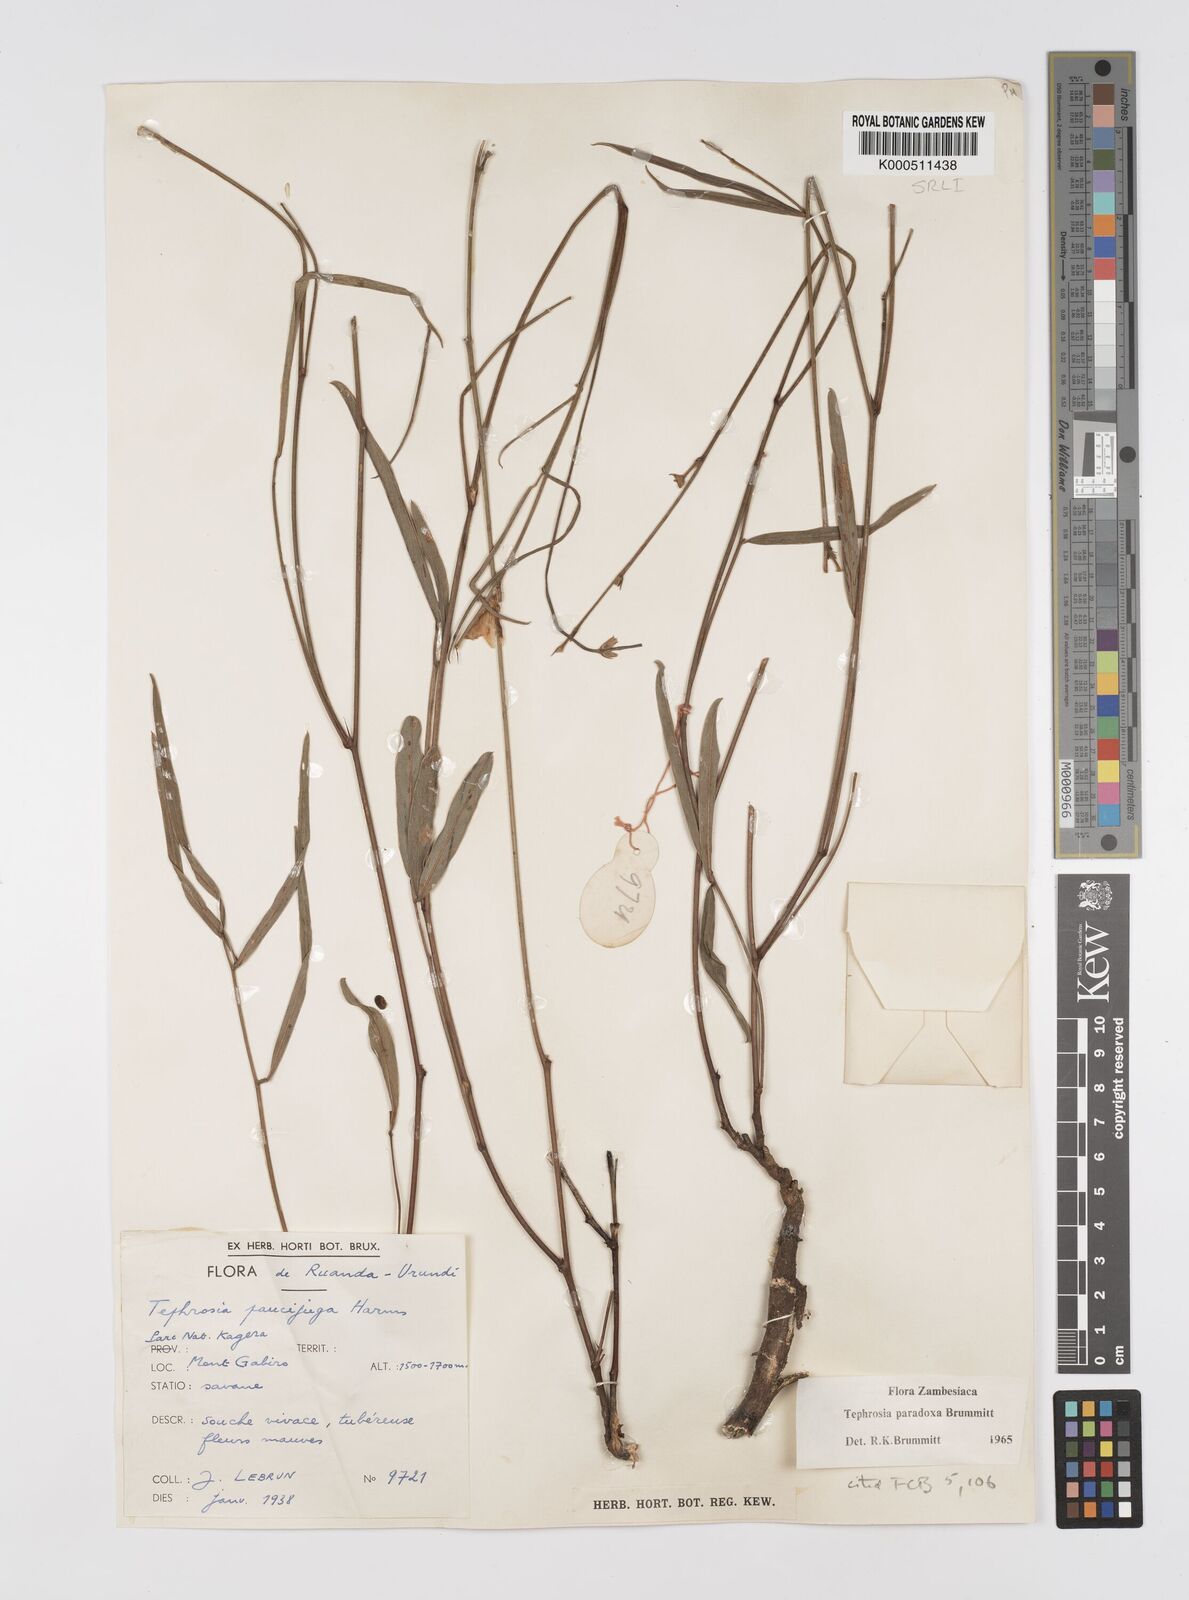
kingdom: Plantae
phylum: Tracheophyta
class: Magnoliopsida
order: Fabales
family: Fabaceae
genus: Tephrosia
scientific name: Tephrosia paradoxa
